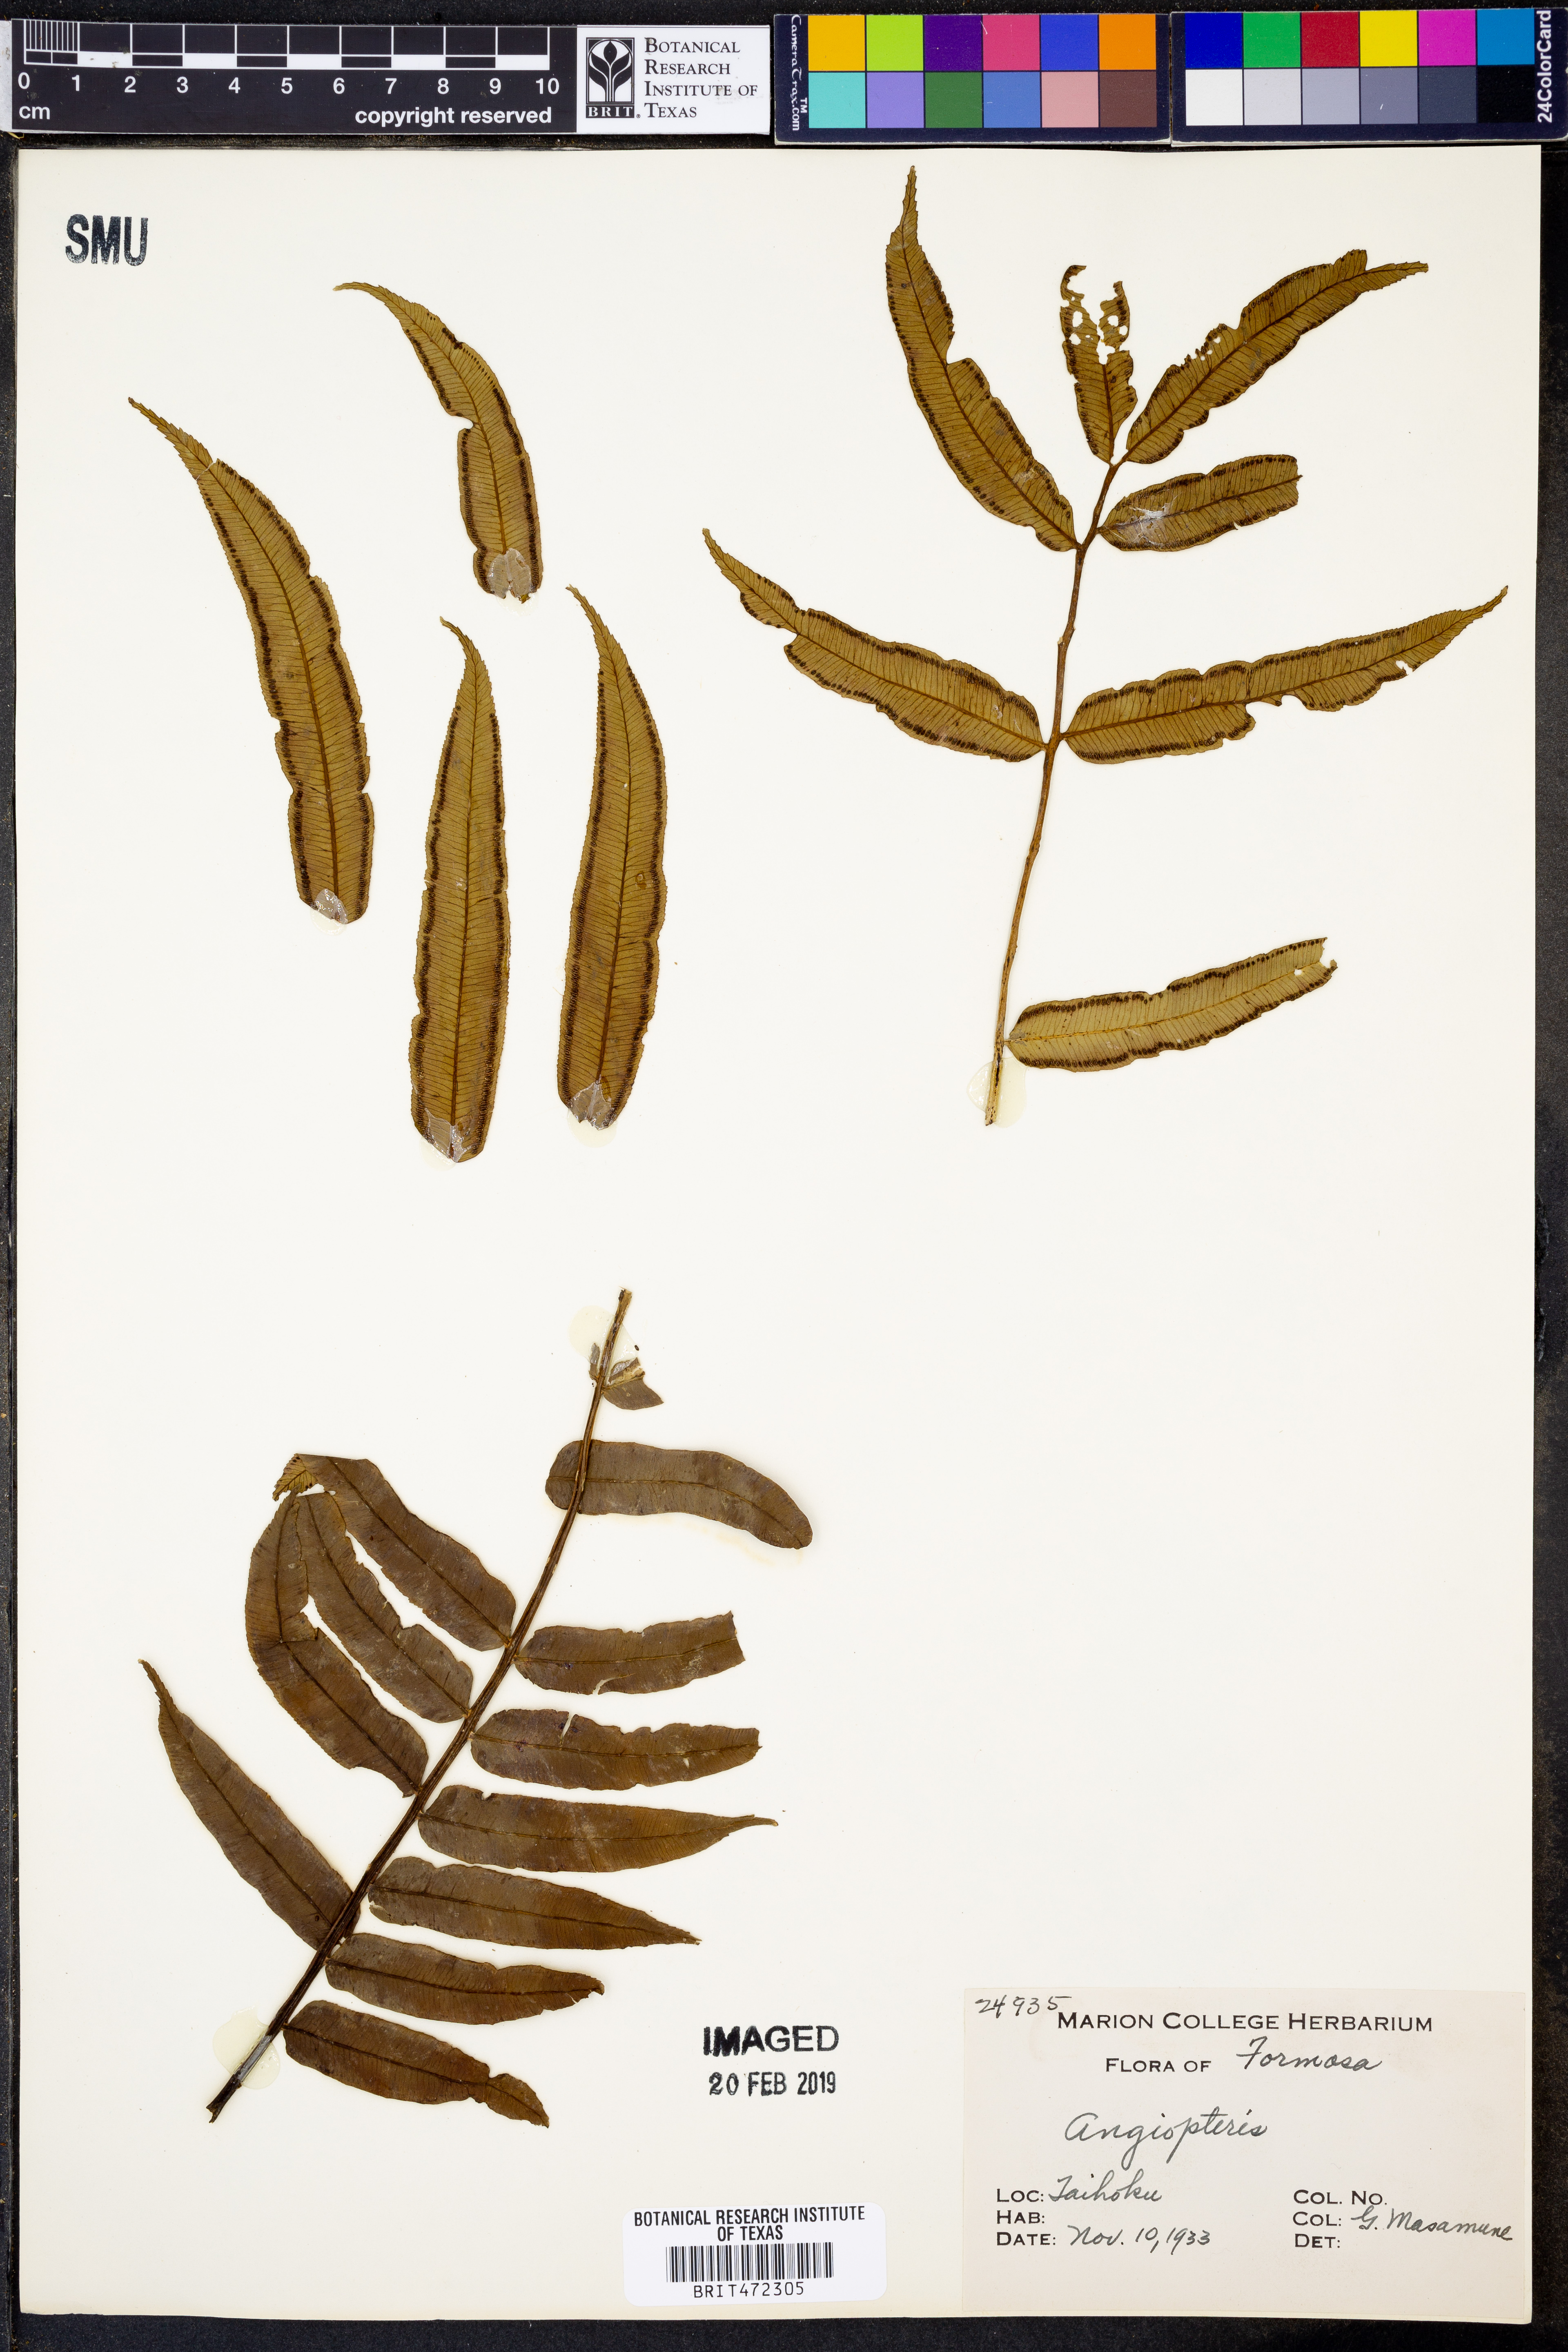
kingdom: Plantae
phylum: Tracheophyta
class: Polypodiopsida
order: Marattiales
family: Marattiaceae
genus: Angiopteris
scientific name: Angiopteris
